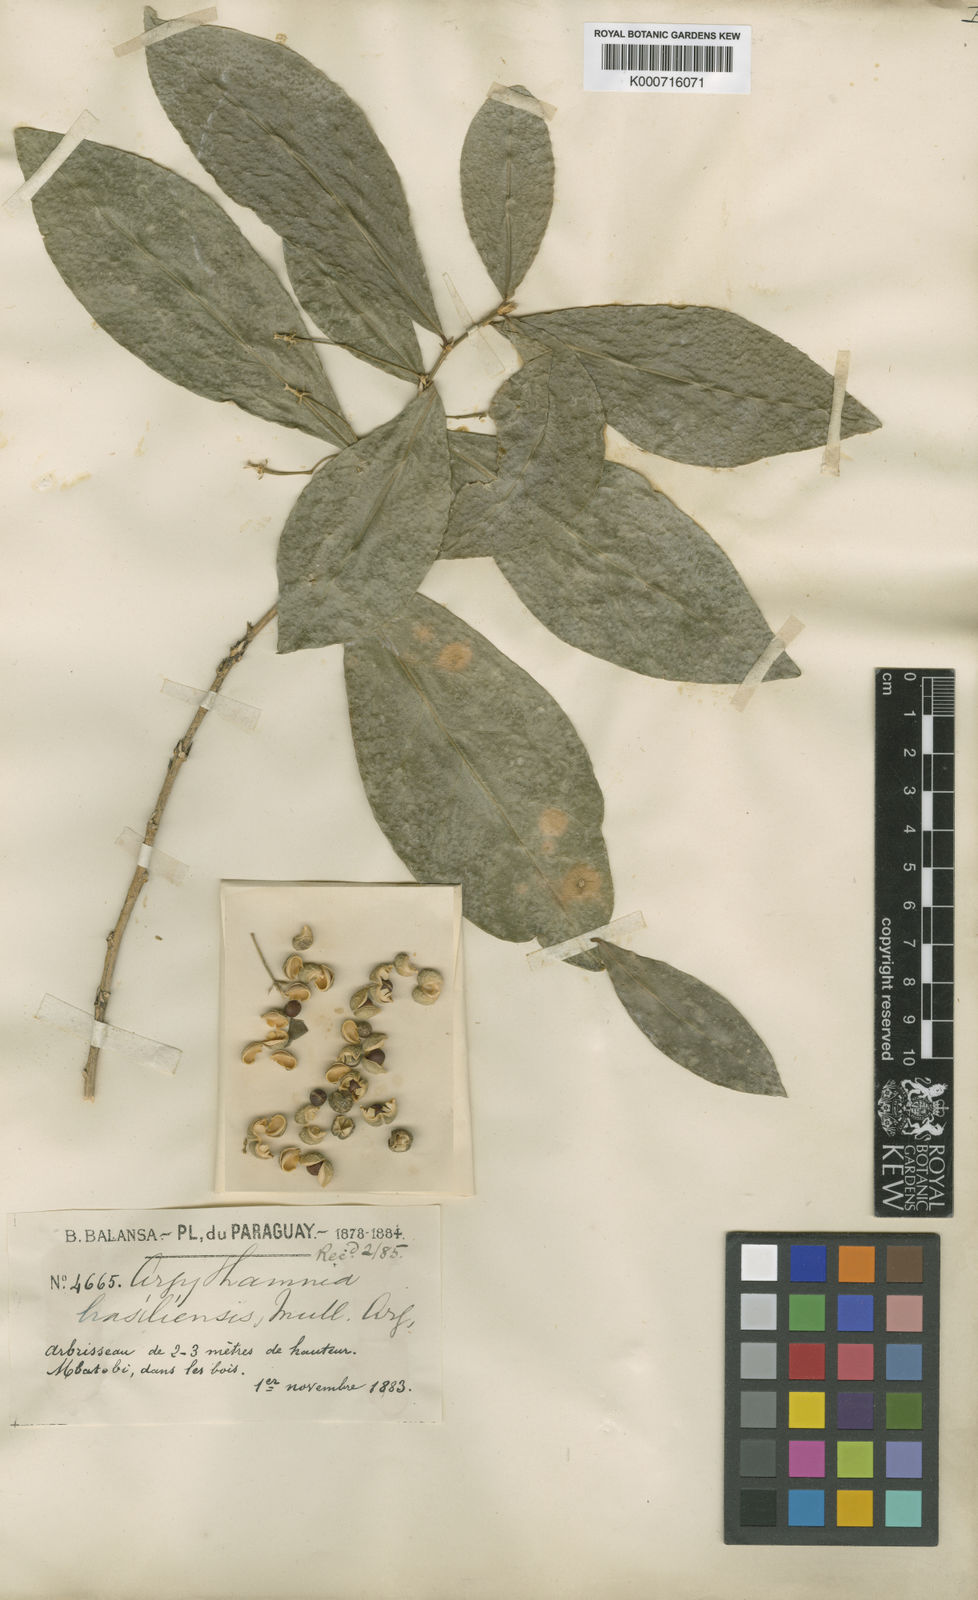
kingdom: Plantae
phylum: Tracheophyta
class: Magnoliopsida
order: Malpighiales
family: Euphorbiaceae
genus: Philyra
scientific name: Philyra brasiliensis
